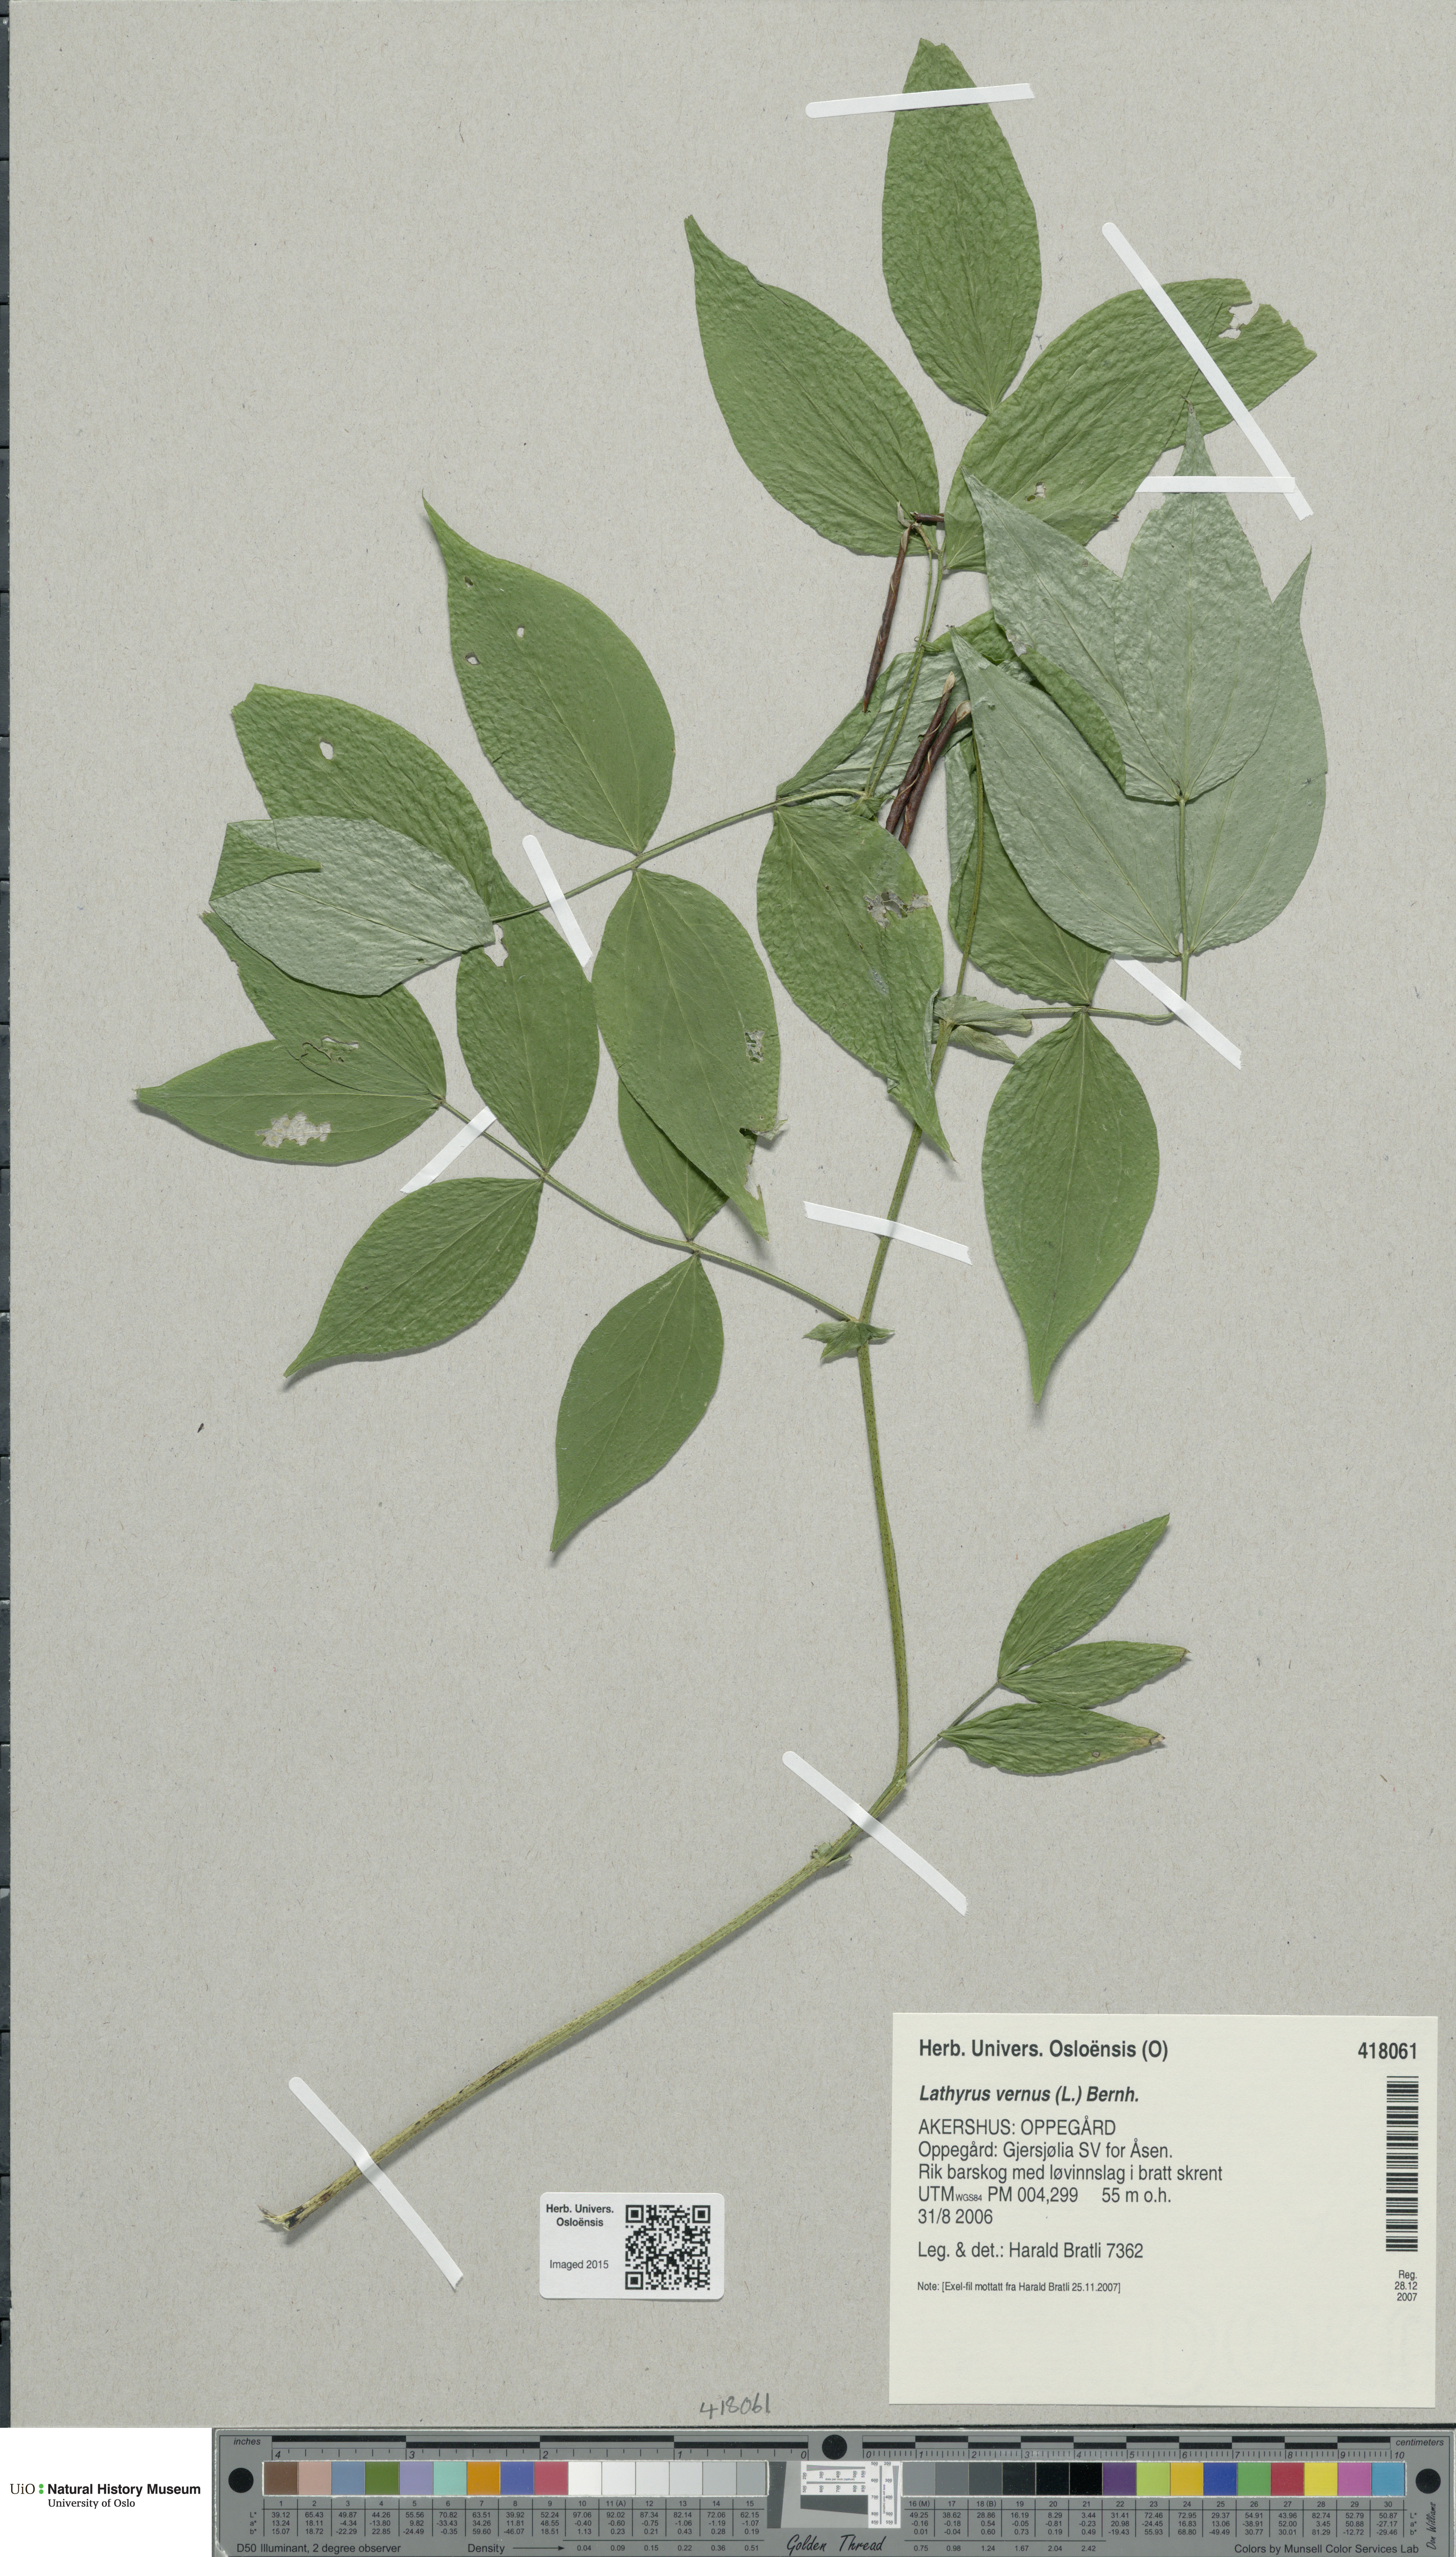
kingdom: Plantae
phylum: Tracheophyta
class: Magnoliopsida
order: Fabales
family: Fabaceae
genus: Lathyrus
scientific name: Lathyrus vernus
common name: Spring pea
